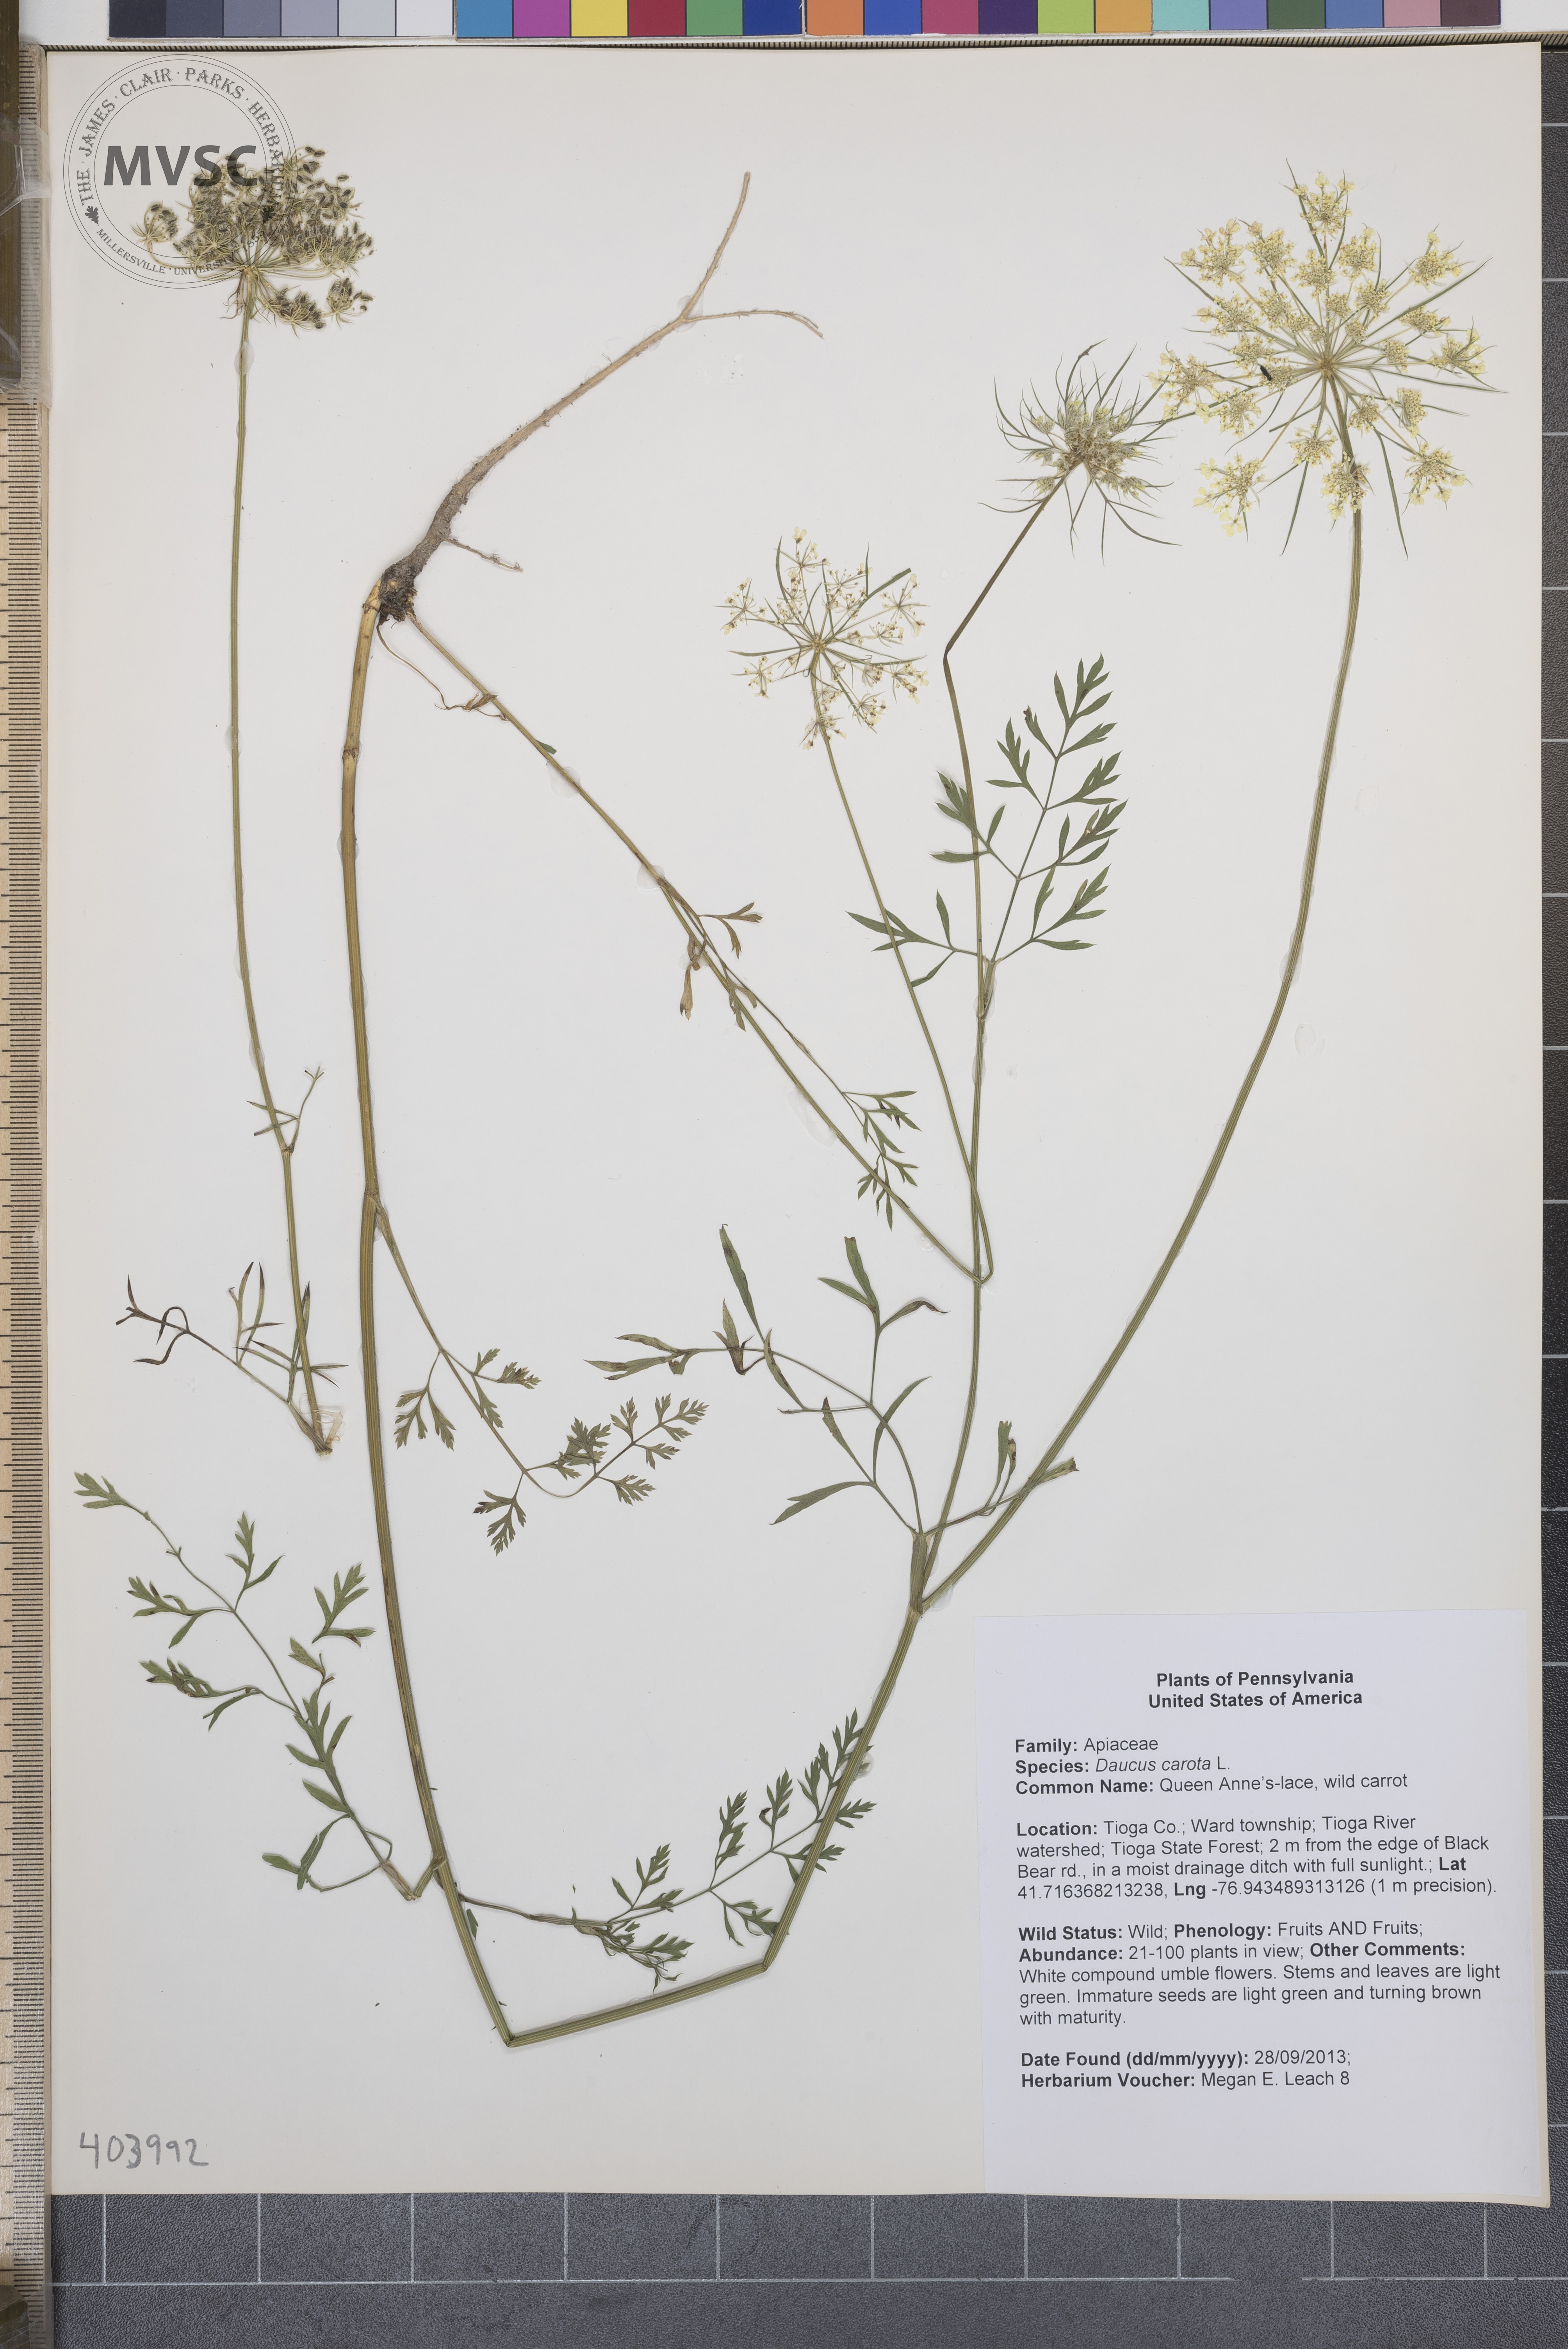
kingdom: Plantae
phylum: Tracheophyta
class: Magnoliopsida
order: Apiales
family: Apiaceae
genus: Daucus
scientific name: Daucus carota
